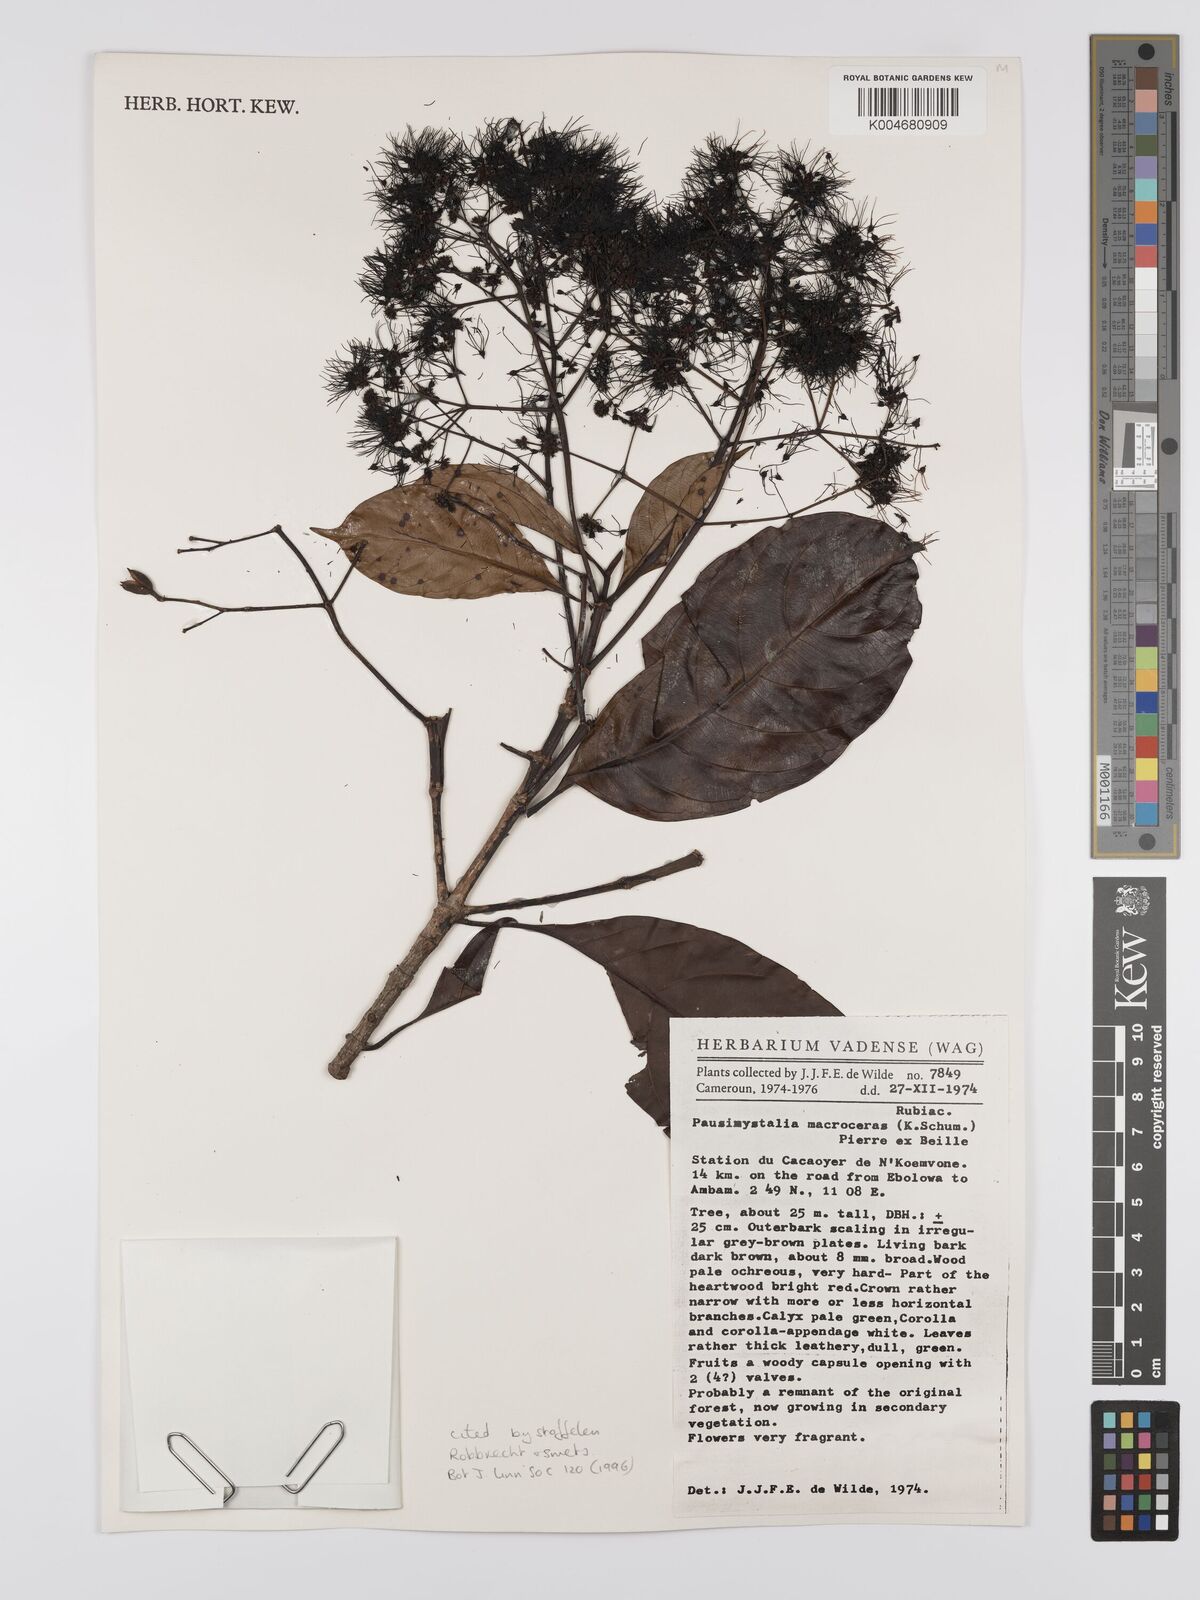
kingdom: Plantae
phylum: Tracheophyta
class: Magnoliopsida
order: Gentianales
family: Rubiaceae
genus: Corynanthe
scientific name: Corynanthe macroceras
